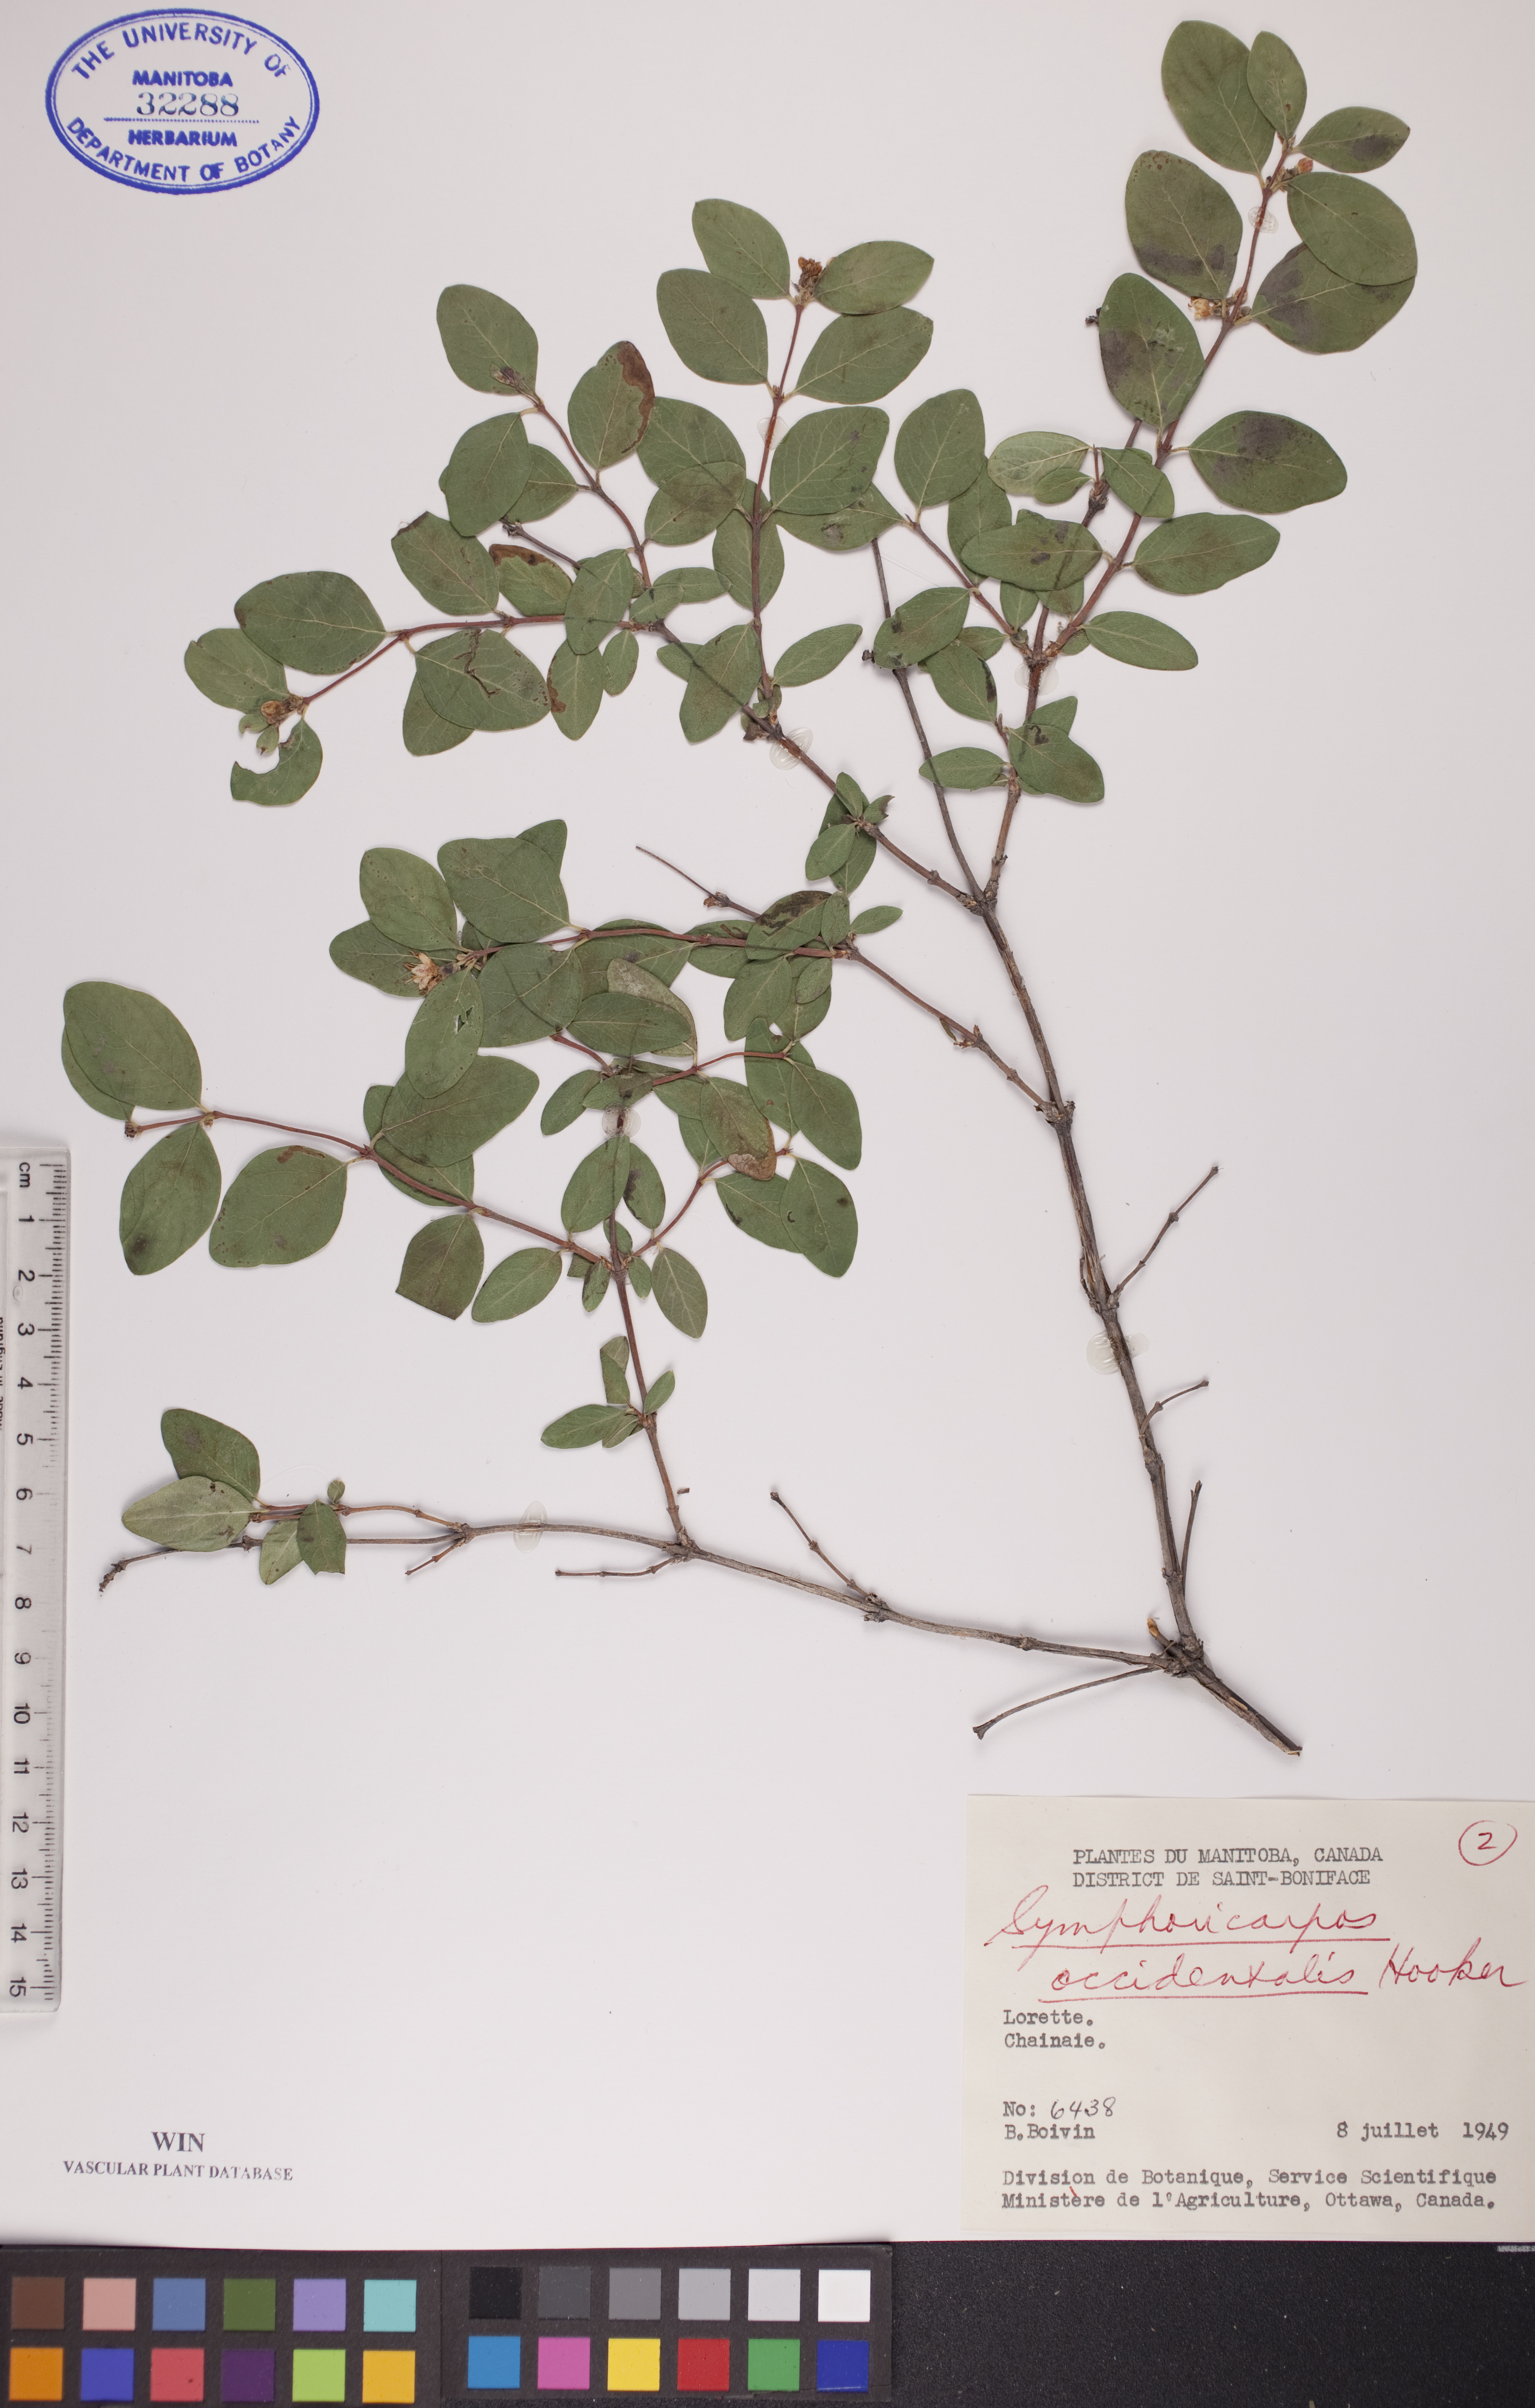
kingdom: Plantae
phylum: Tracheophyta
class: Magnoliopsida
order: Dipsacales
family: Caprifoliaceae
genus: Symphoricarpos
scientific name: Symphoricarpos occidentalis
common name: Wolfberry
